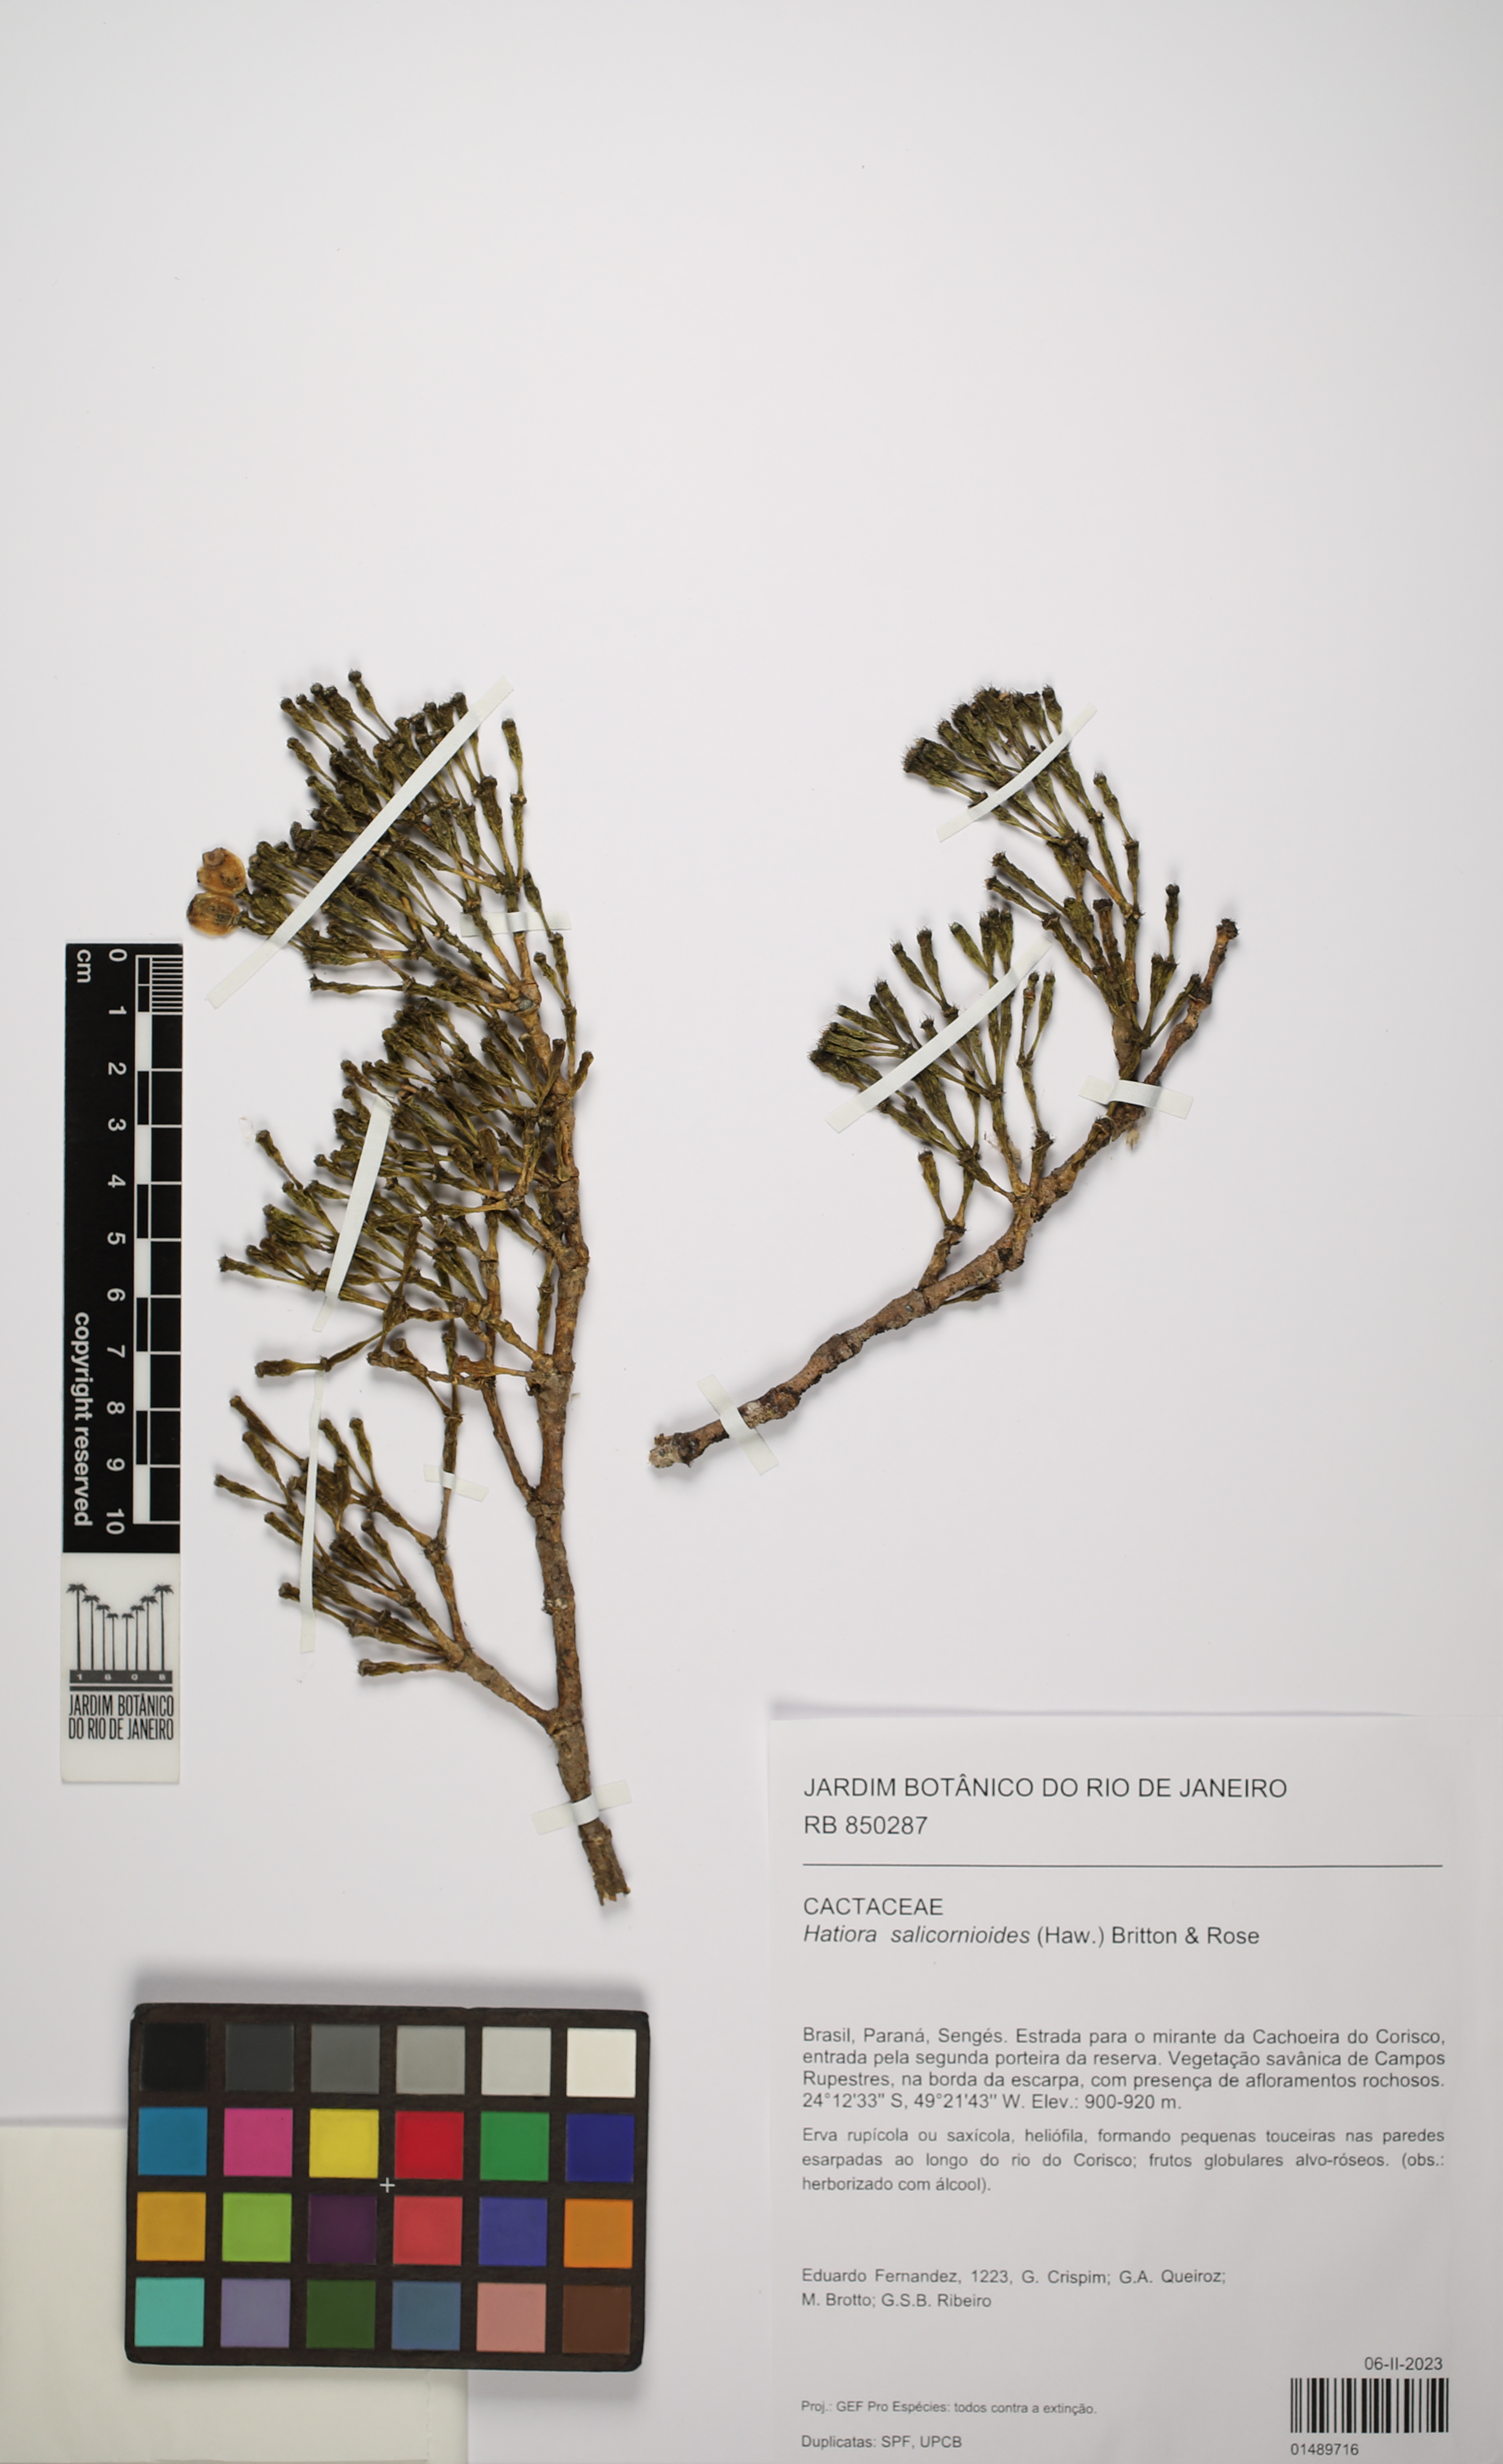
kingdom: Plantae
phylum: Tracheophyta
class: Magnoliopsida
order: Caryophyllales
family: Cactaceae
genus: Hatiora
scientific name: Hatiora salicornioides
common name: Dancing-bones
